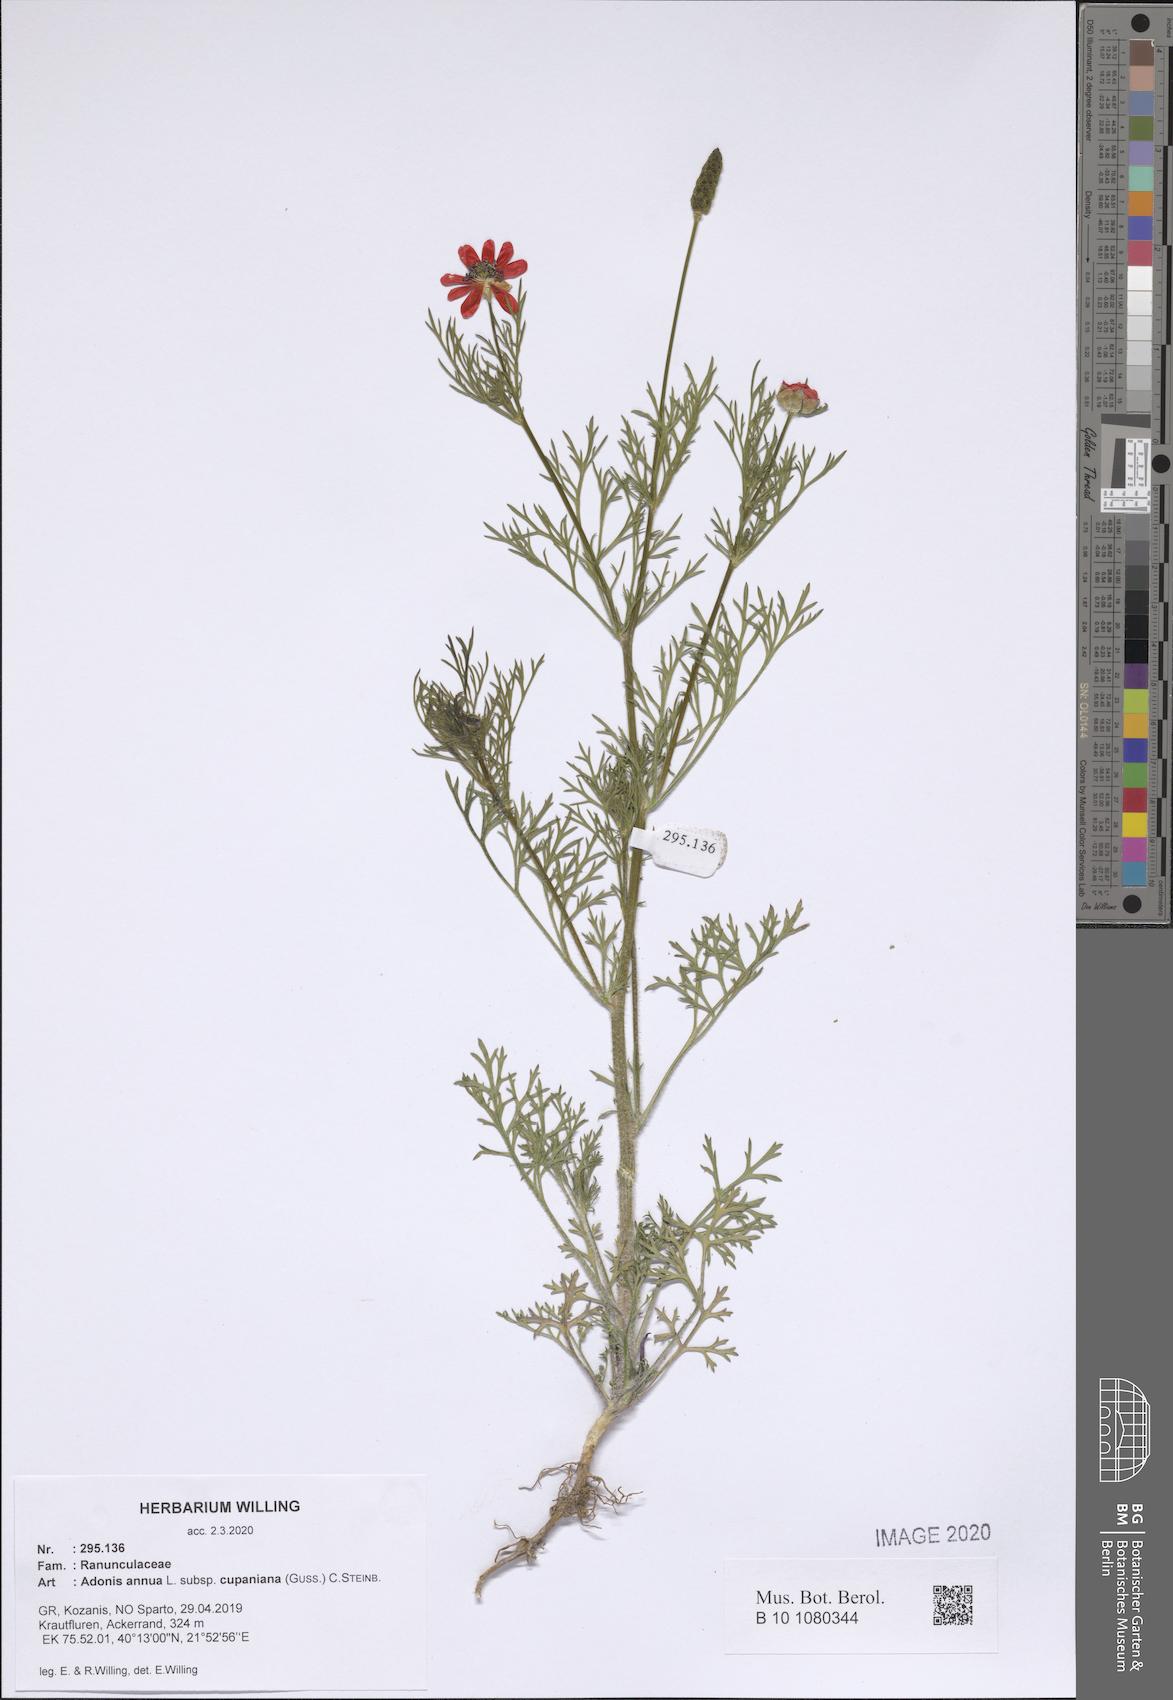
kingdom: Plantae
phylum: Tracheophyta
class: Magnoliopsida
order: Ranunculales
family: Ranunculaceae
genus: Adonis
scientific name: Adonis annua
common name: Pheasant's-eye
